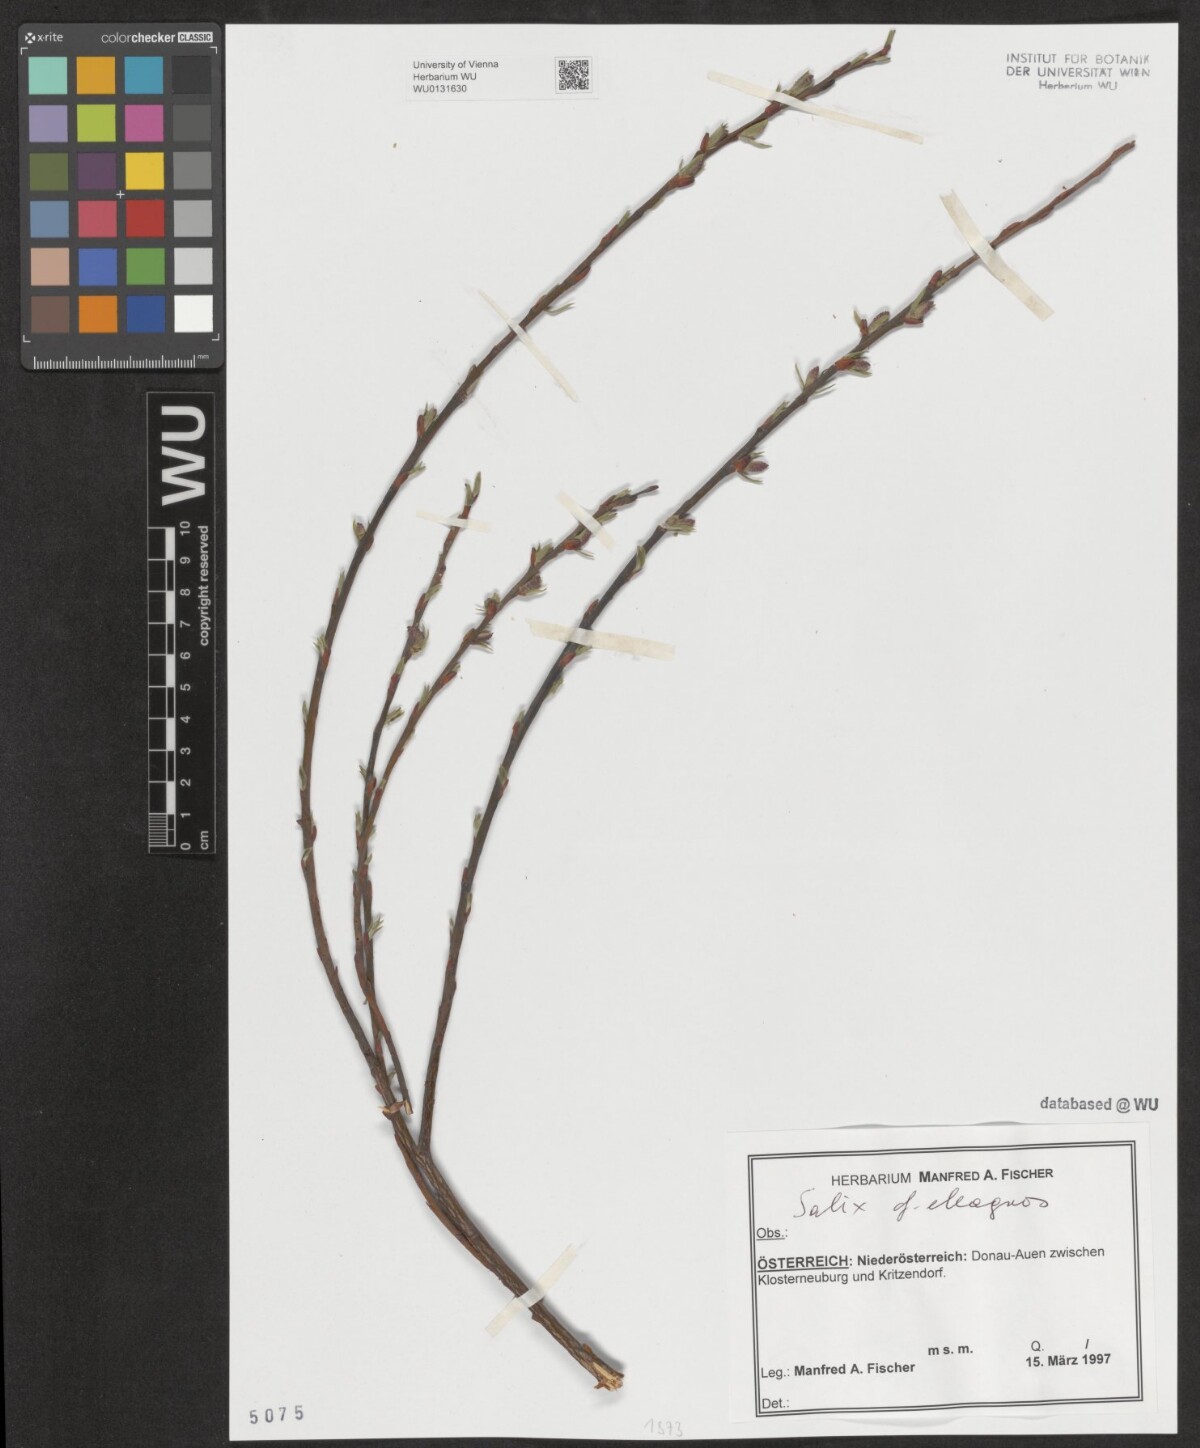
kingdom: Plantae
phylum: Tracheophyta
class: Magnoliopsida
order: Malpighiales
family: Salicaceae
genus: Salix
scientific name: Salix eleagnos
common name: Elaeagnus willow
